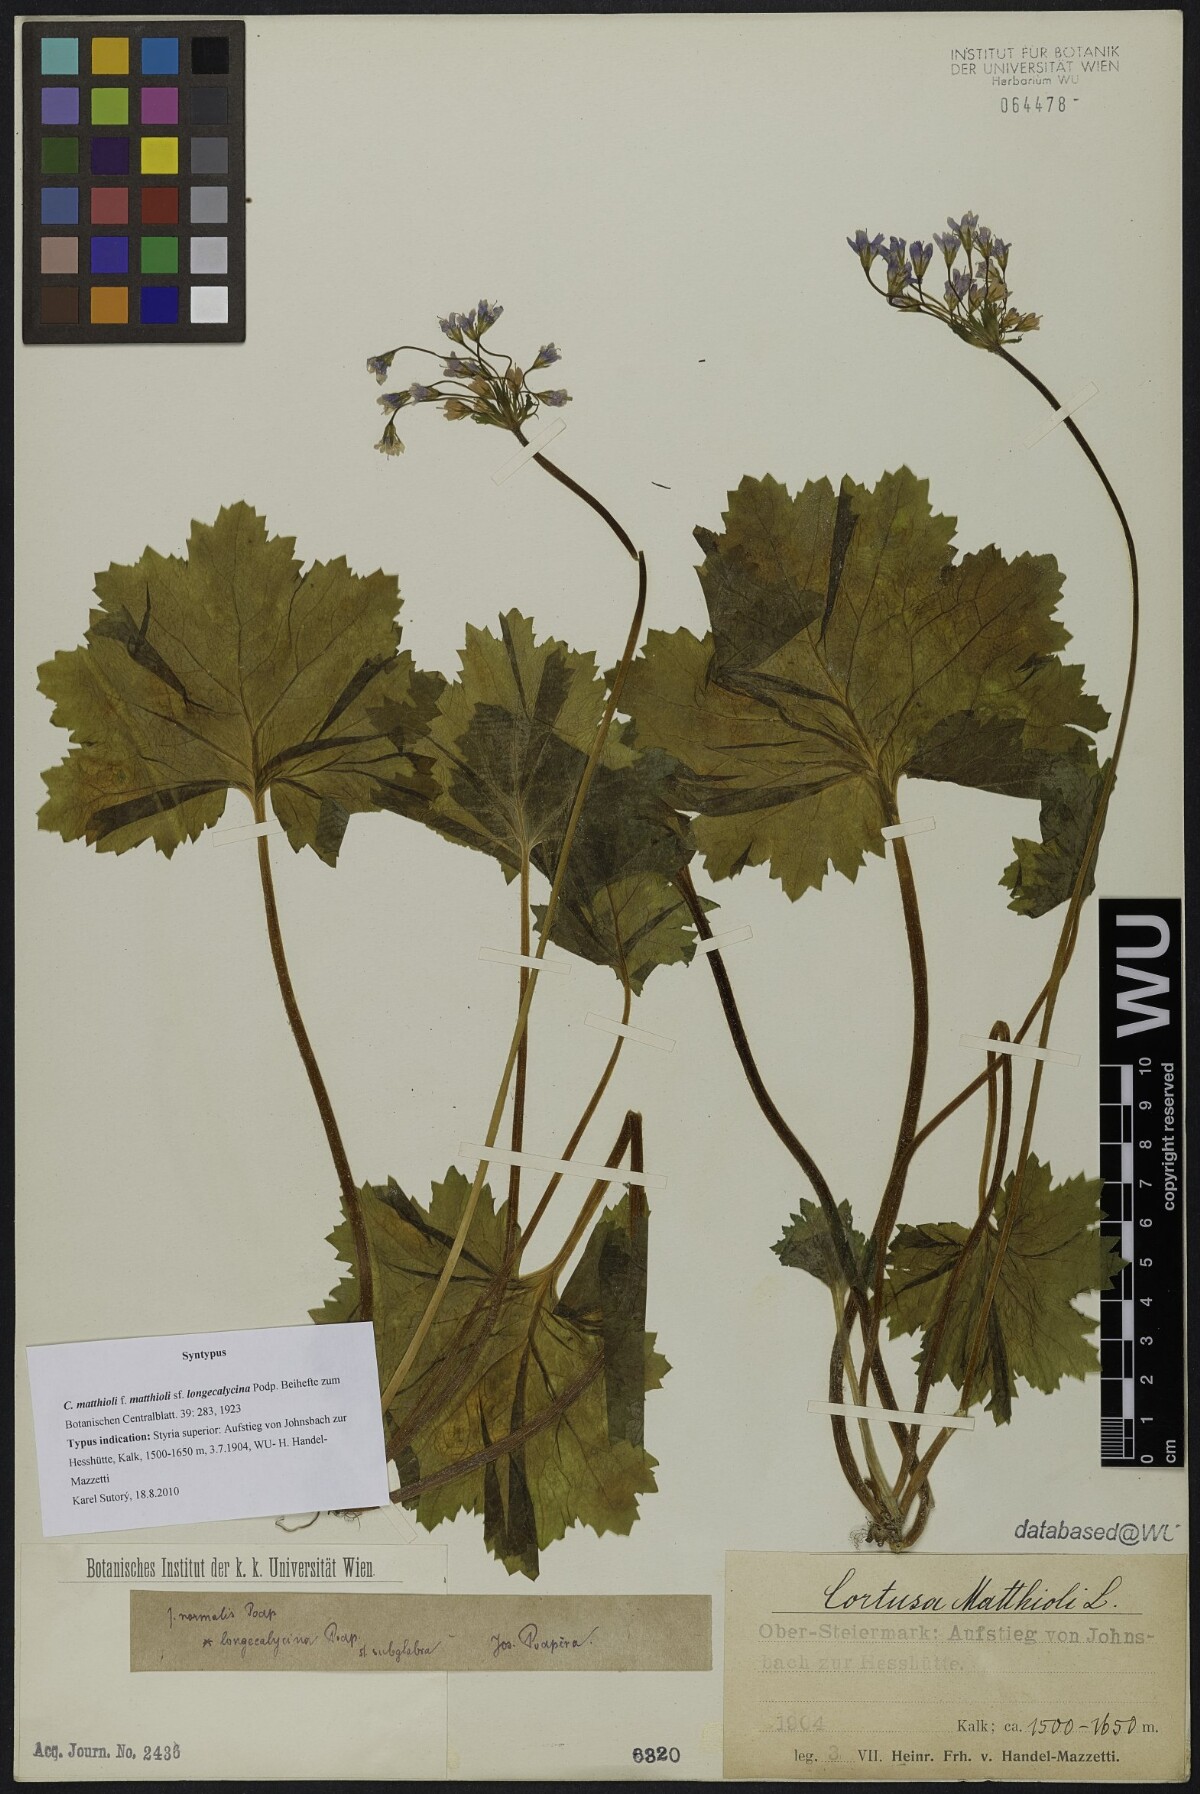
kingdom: Plantae
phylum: Tracheophyta
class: Magnoliopsida
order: Ericales
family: Primulaceae
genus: Primula
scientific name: Primula matthioli
